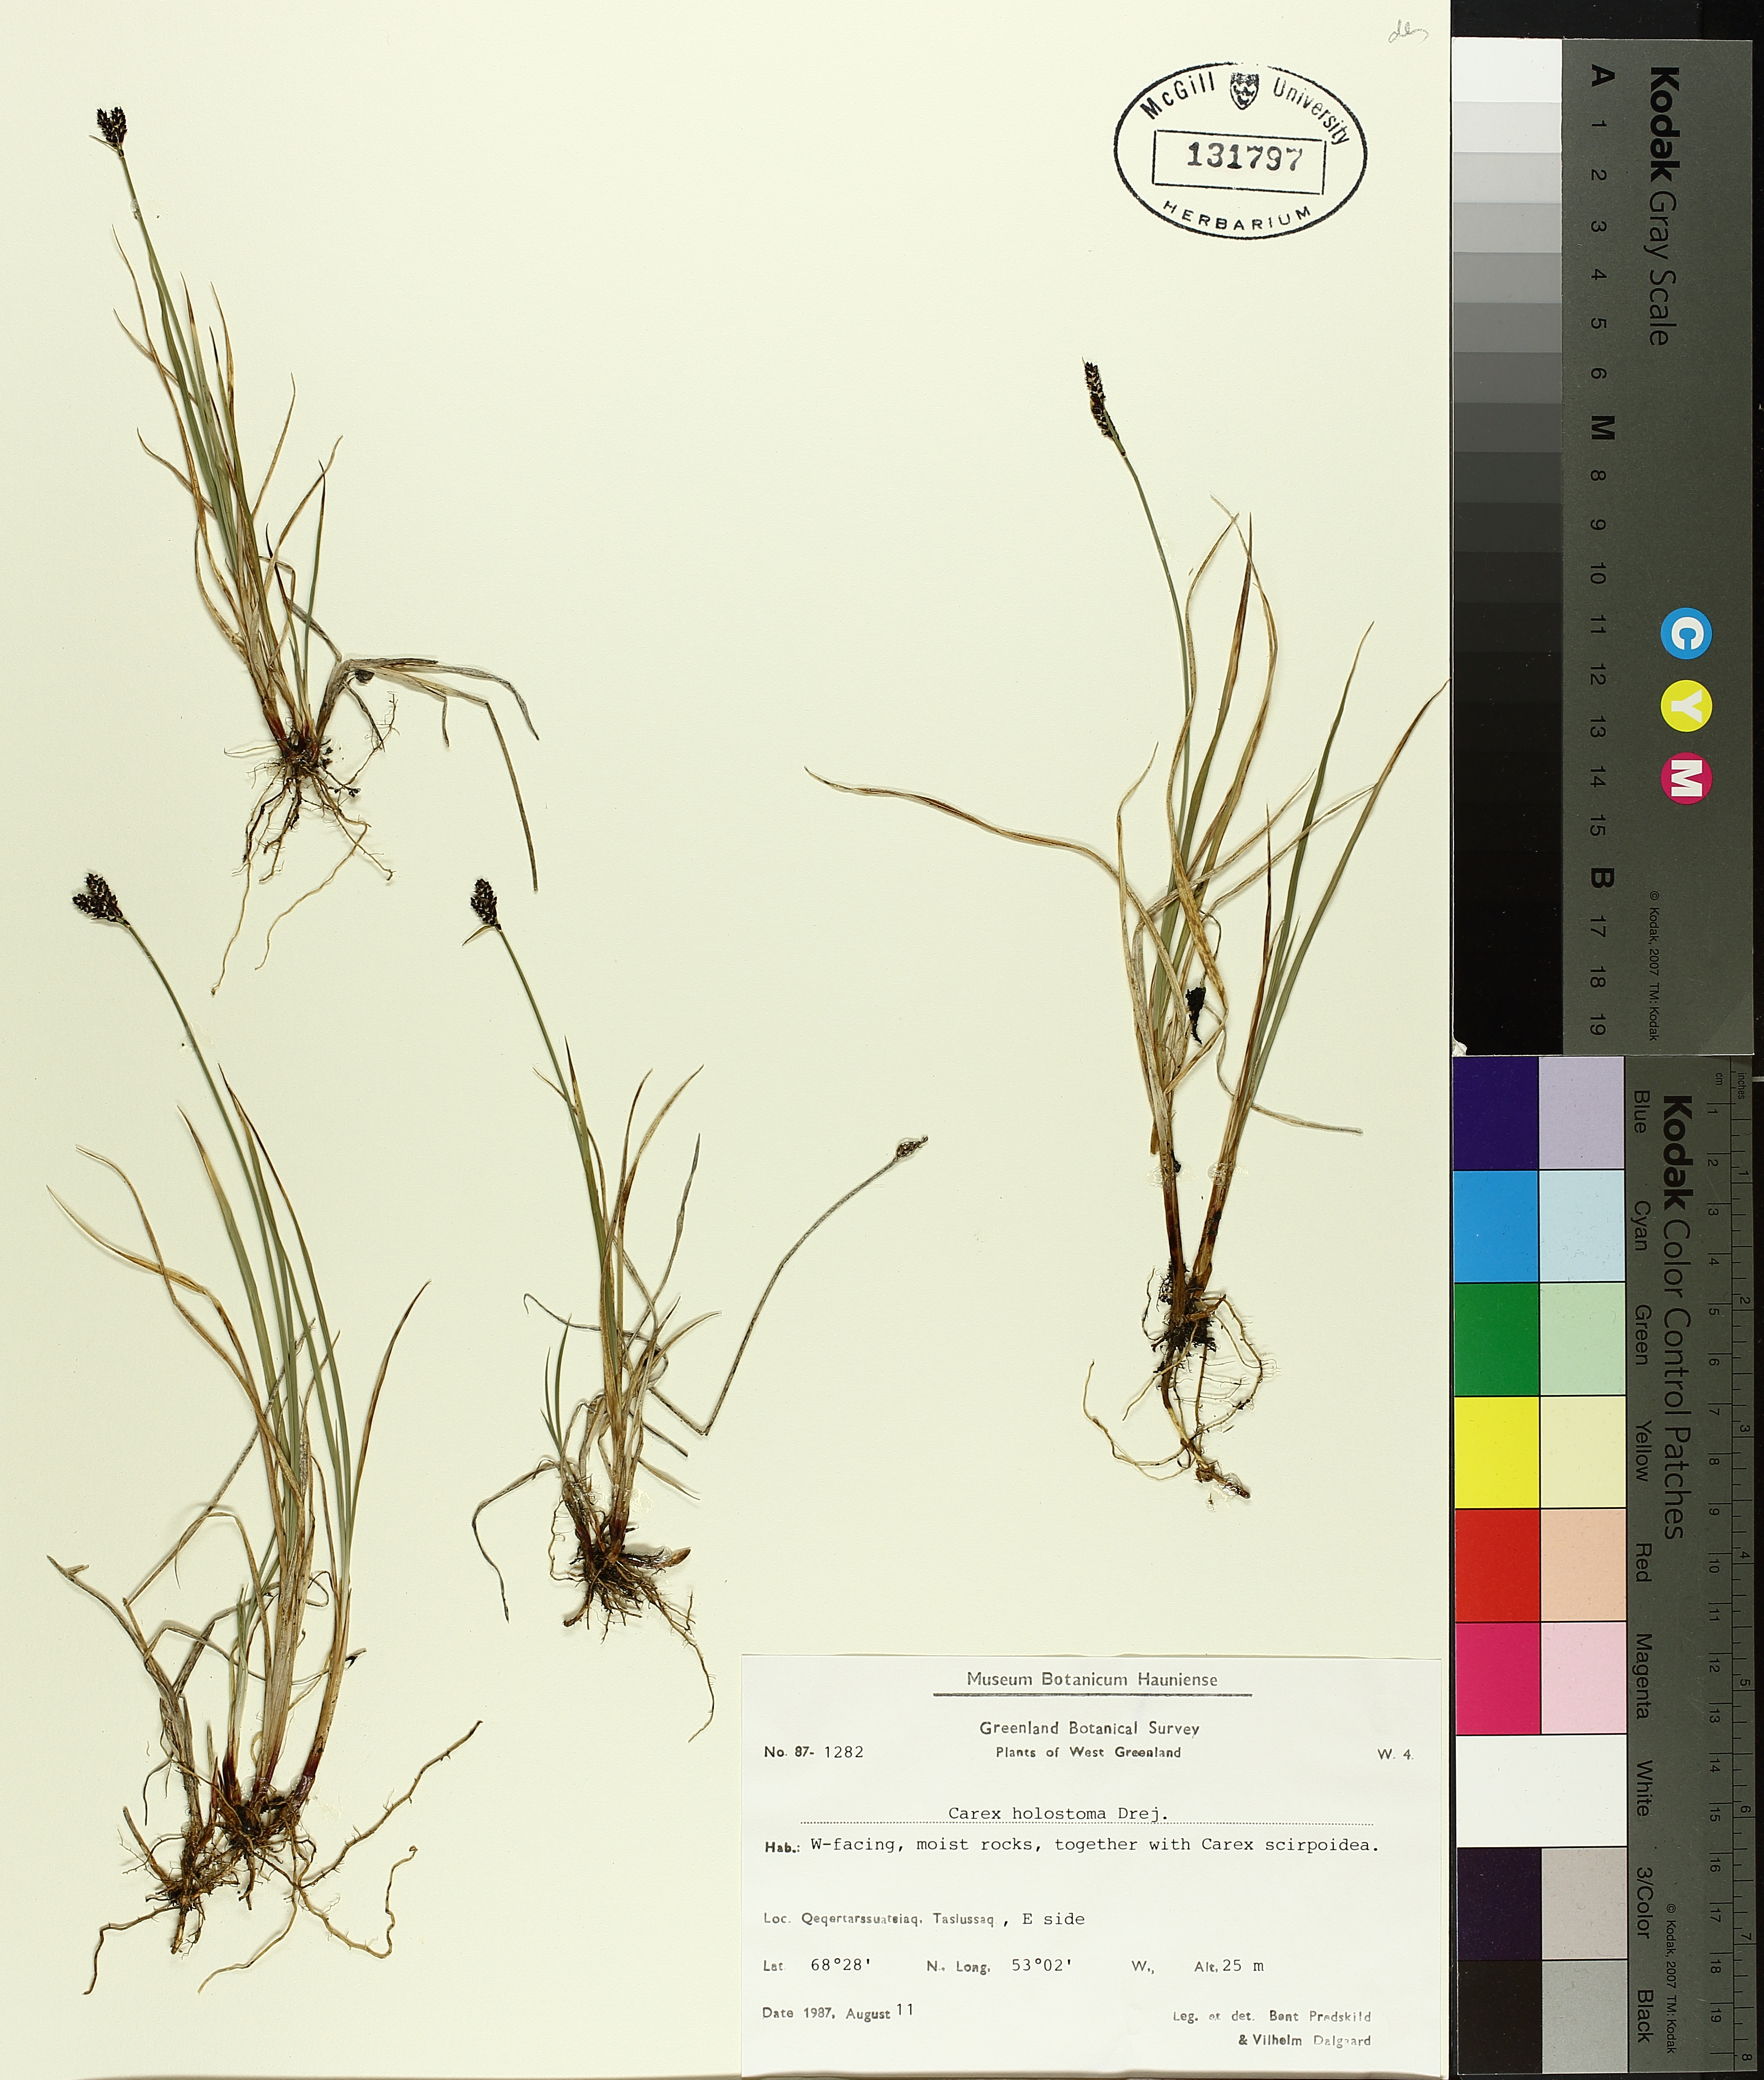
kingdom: Plantae
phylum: Tracheophyta
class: Liliopsida
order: Poales
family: Cyperaceae
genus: Carex
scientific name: Carex holostoma
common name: Arctic marsh sedge
